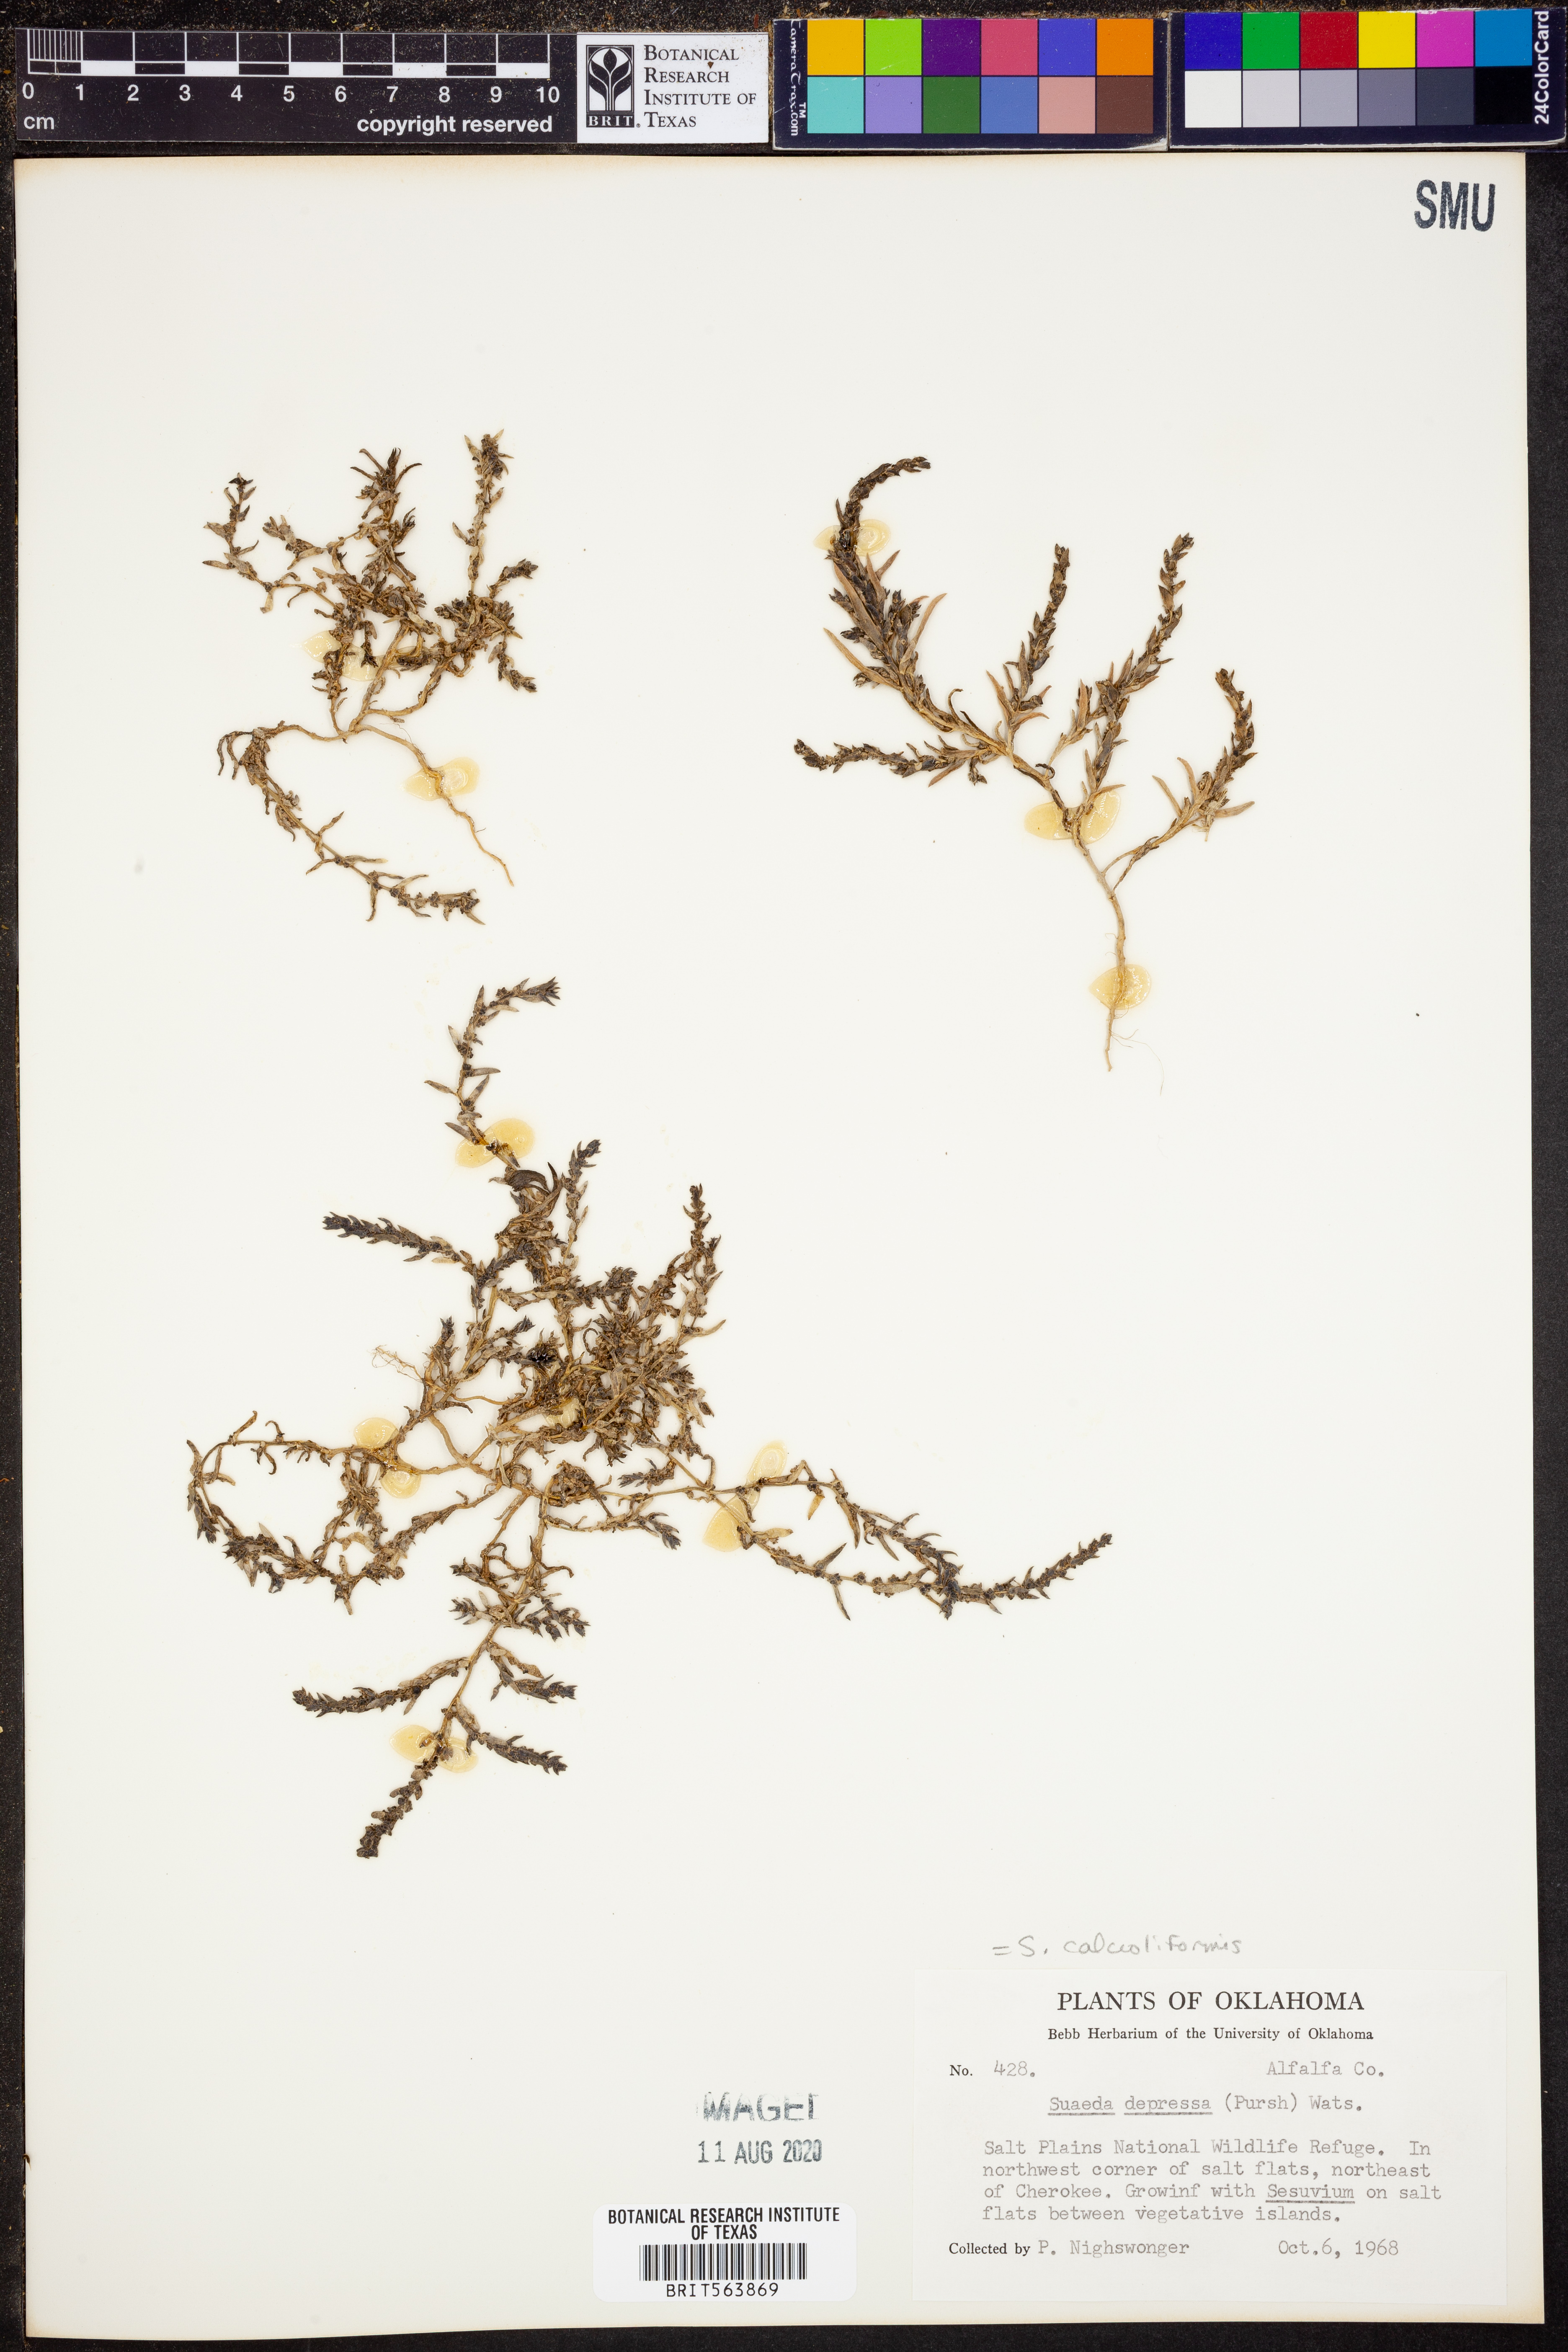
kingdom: Plantae
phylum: Tracheophyta
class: Magnoliopsida
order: Caryophyllales
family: Amaranthaceae
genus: Suaeda
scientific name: Suaeda calceoliformis
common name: Pursh's seepweed
